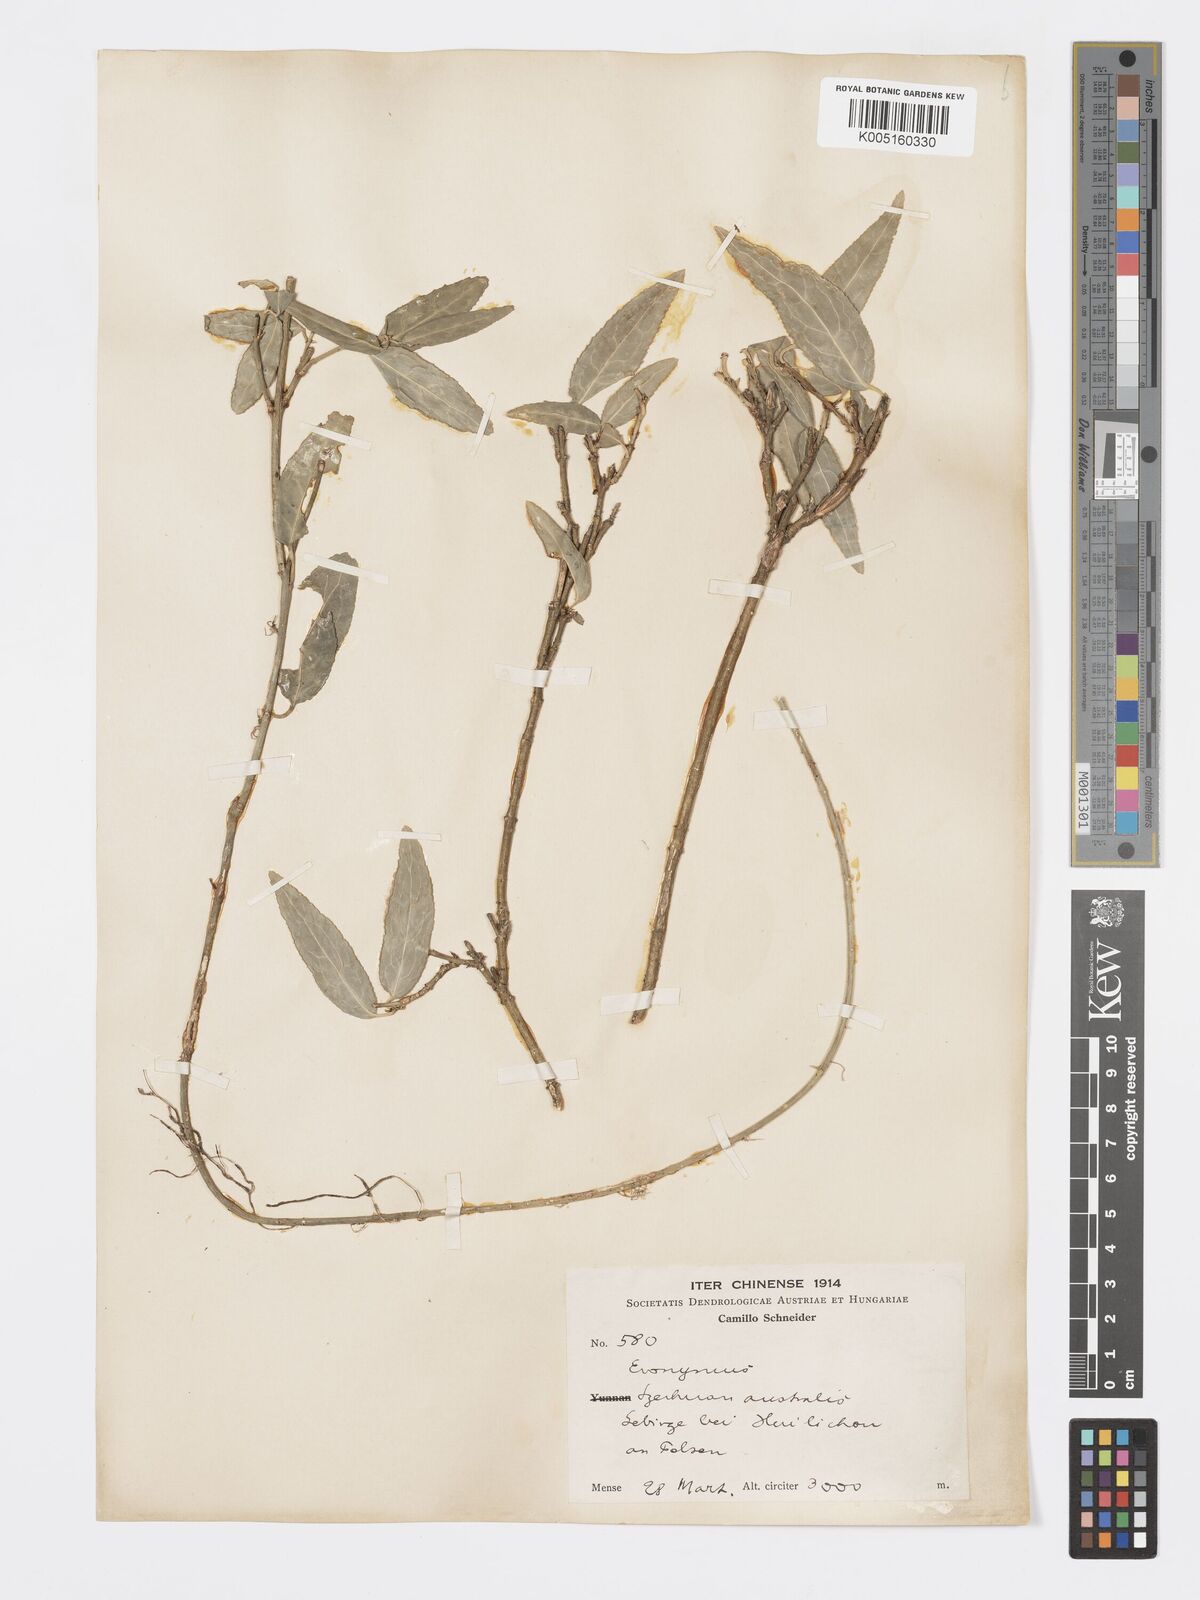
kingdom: Plantae
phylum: Tracheophyta
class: Magnoliopsida
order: Celastrales
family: Celastraceae
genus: Euonymus
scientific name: Euonymus frigidus
